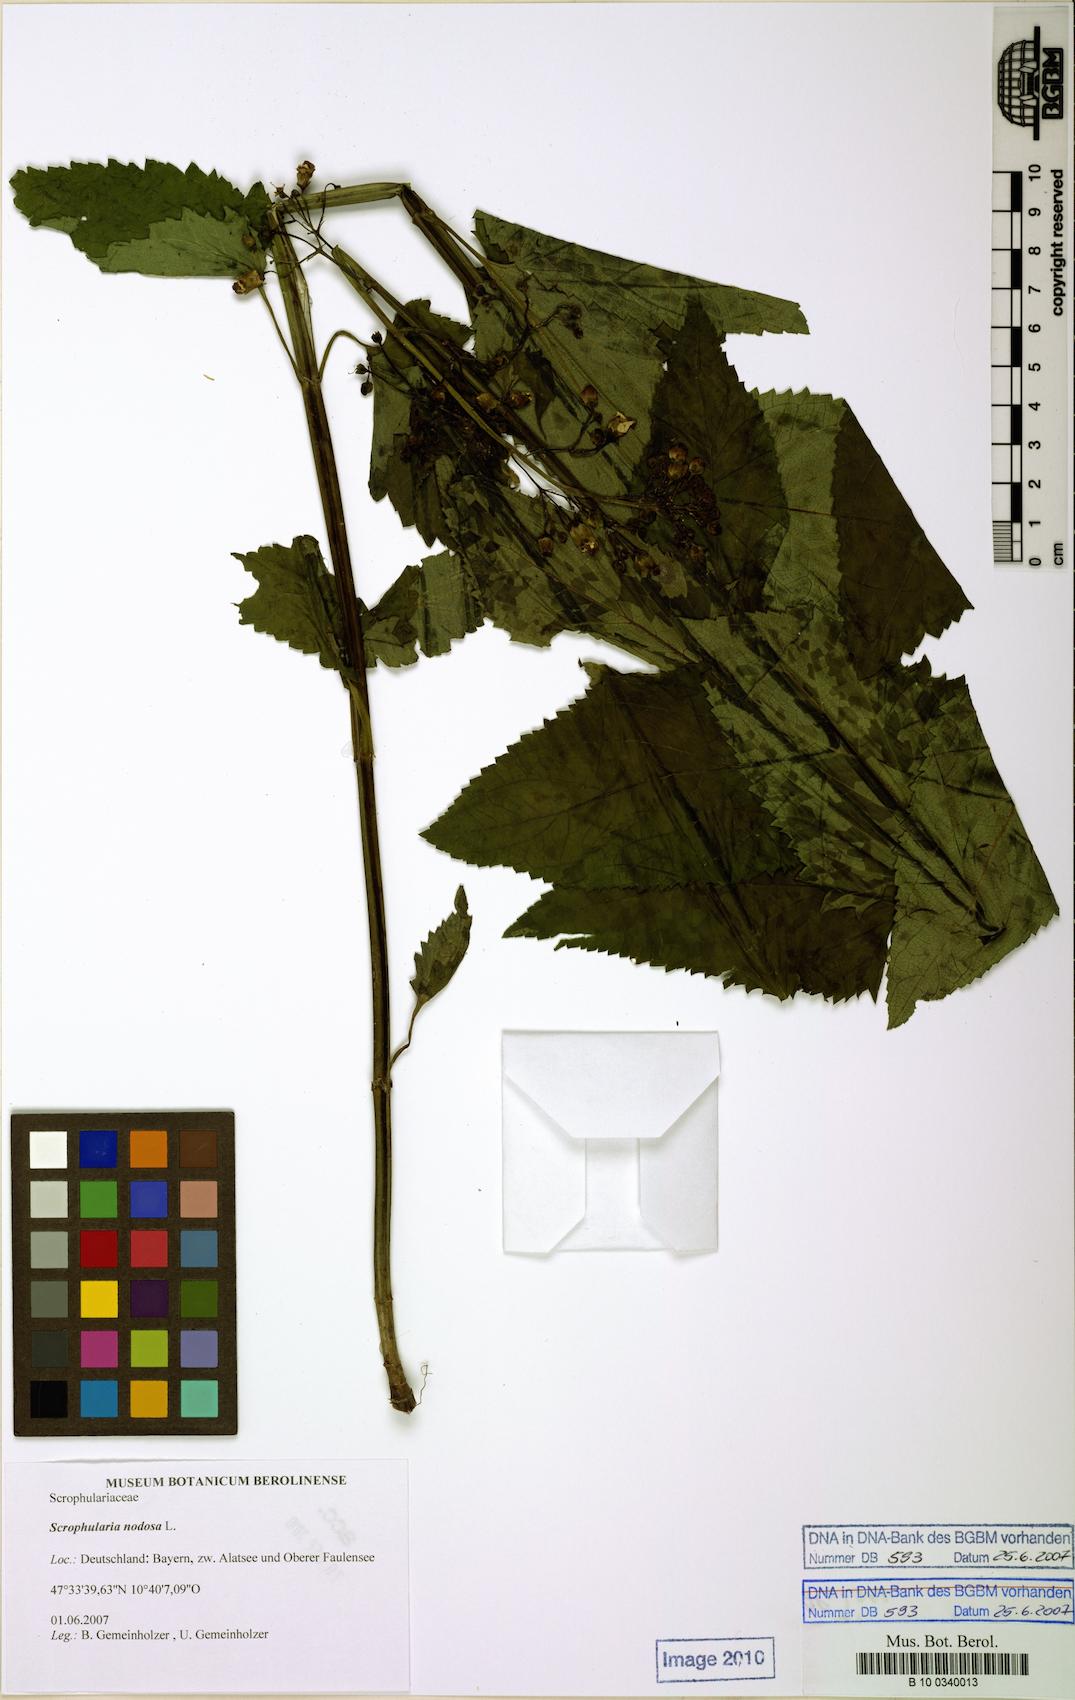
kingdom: Plantae
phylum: Tracheophyta
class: Magnoliopsida
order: Lamiales
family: Scrophulariaceae
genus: Scrophularia
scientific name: Scrophularia nodosa
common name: Common figwort
